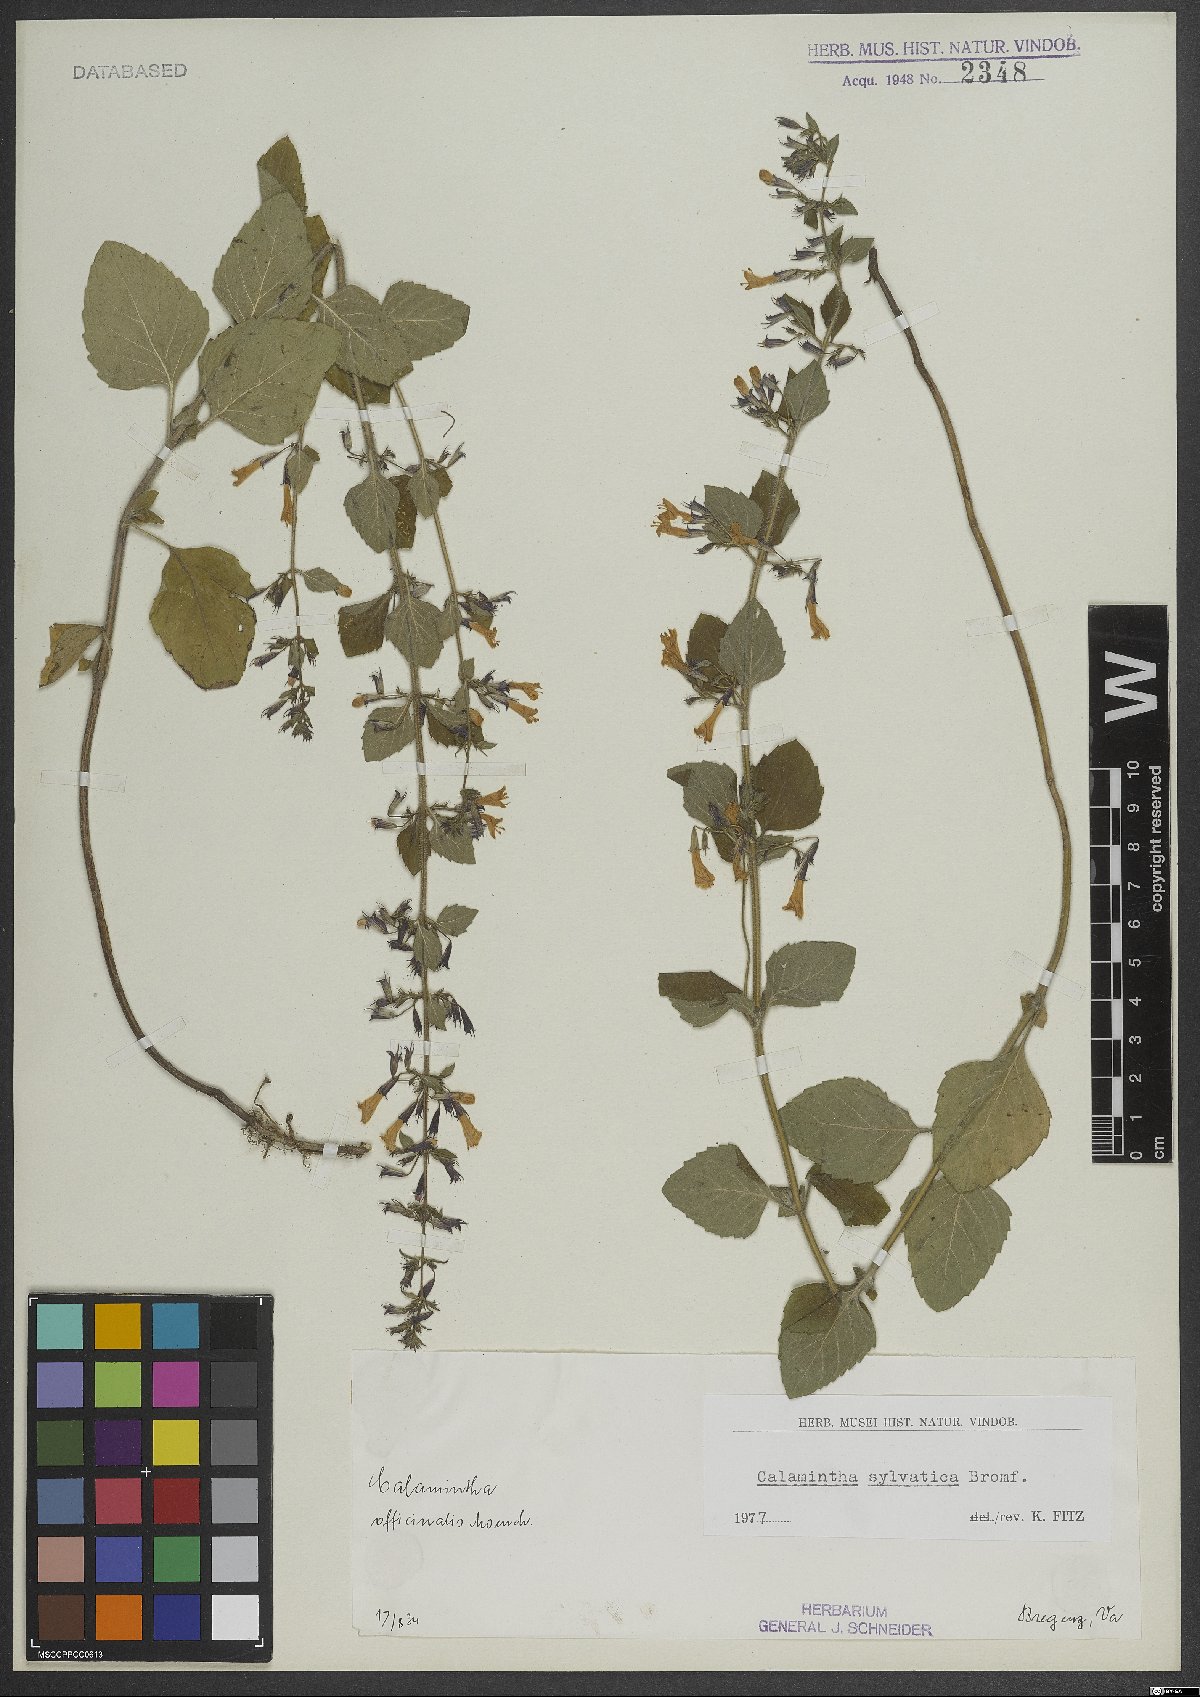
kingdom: Plantae
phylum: Tracheophyta
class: Magnoliopsida
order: Lamiales
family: Lamiaceae
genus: Clinopodium
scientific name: Clinopodium menthifolium
